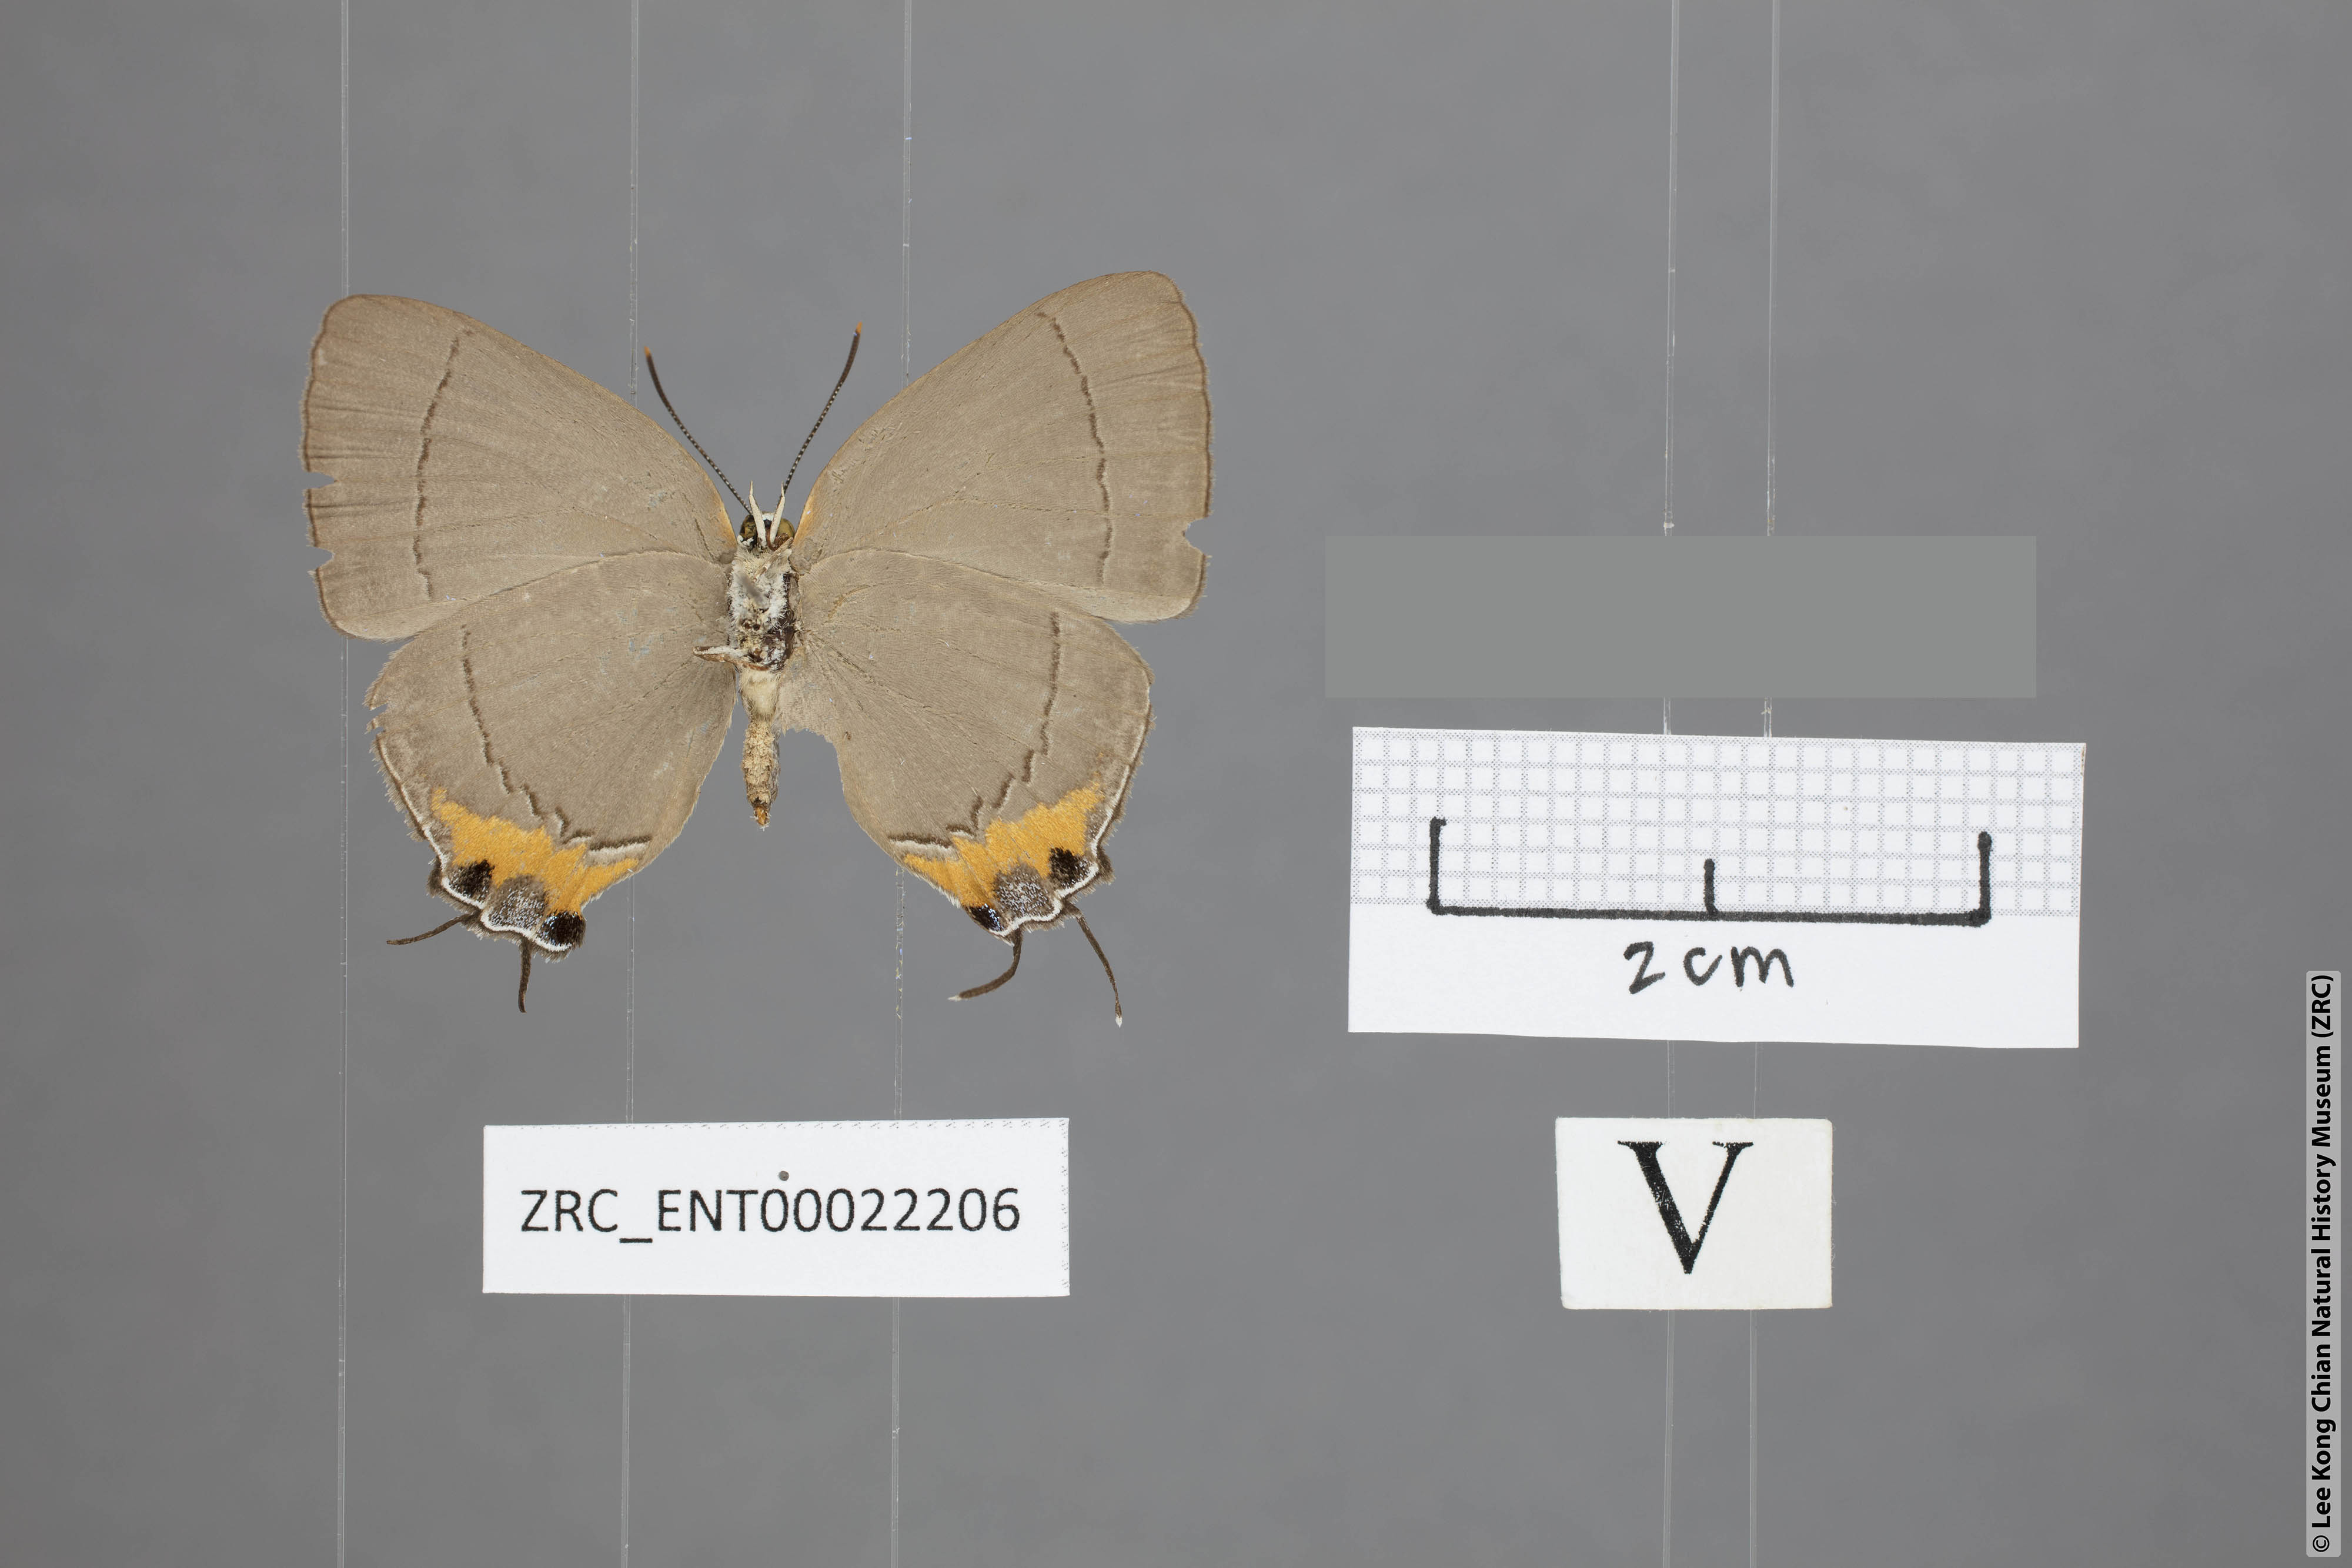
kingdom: Animalia
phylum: Arthropoda
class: Insecta
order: Lepidoptera
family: Lycaenidae
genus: Tajuria
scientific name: Tajuria isaeus
